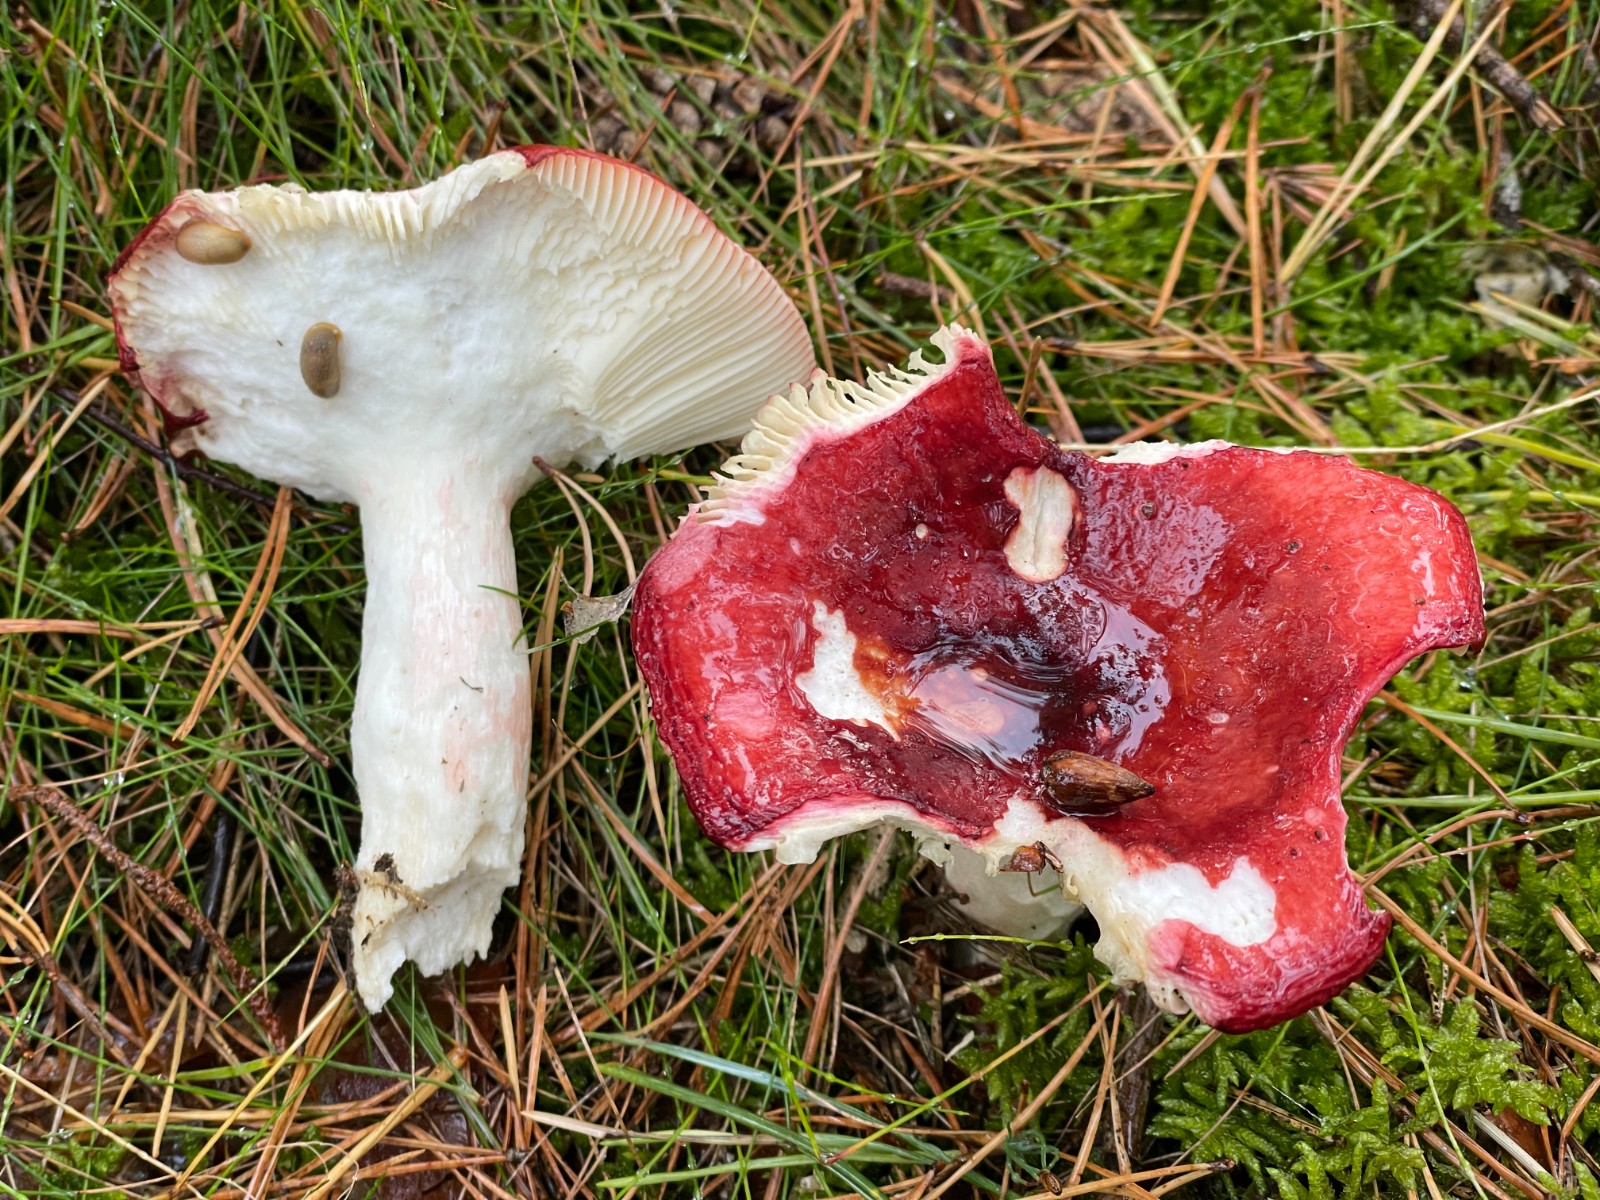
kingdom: Fungi
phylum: Basidiomycota
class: Agaricomycetes
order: Russulales
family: Russulaceae
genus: Russula
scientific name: Russula paludosa
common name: prægtig skørhat
